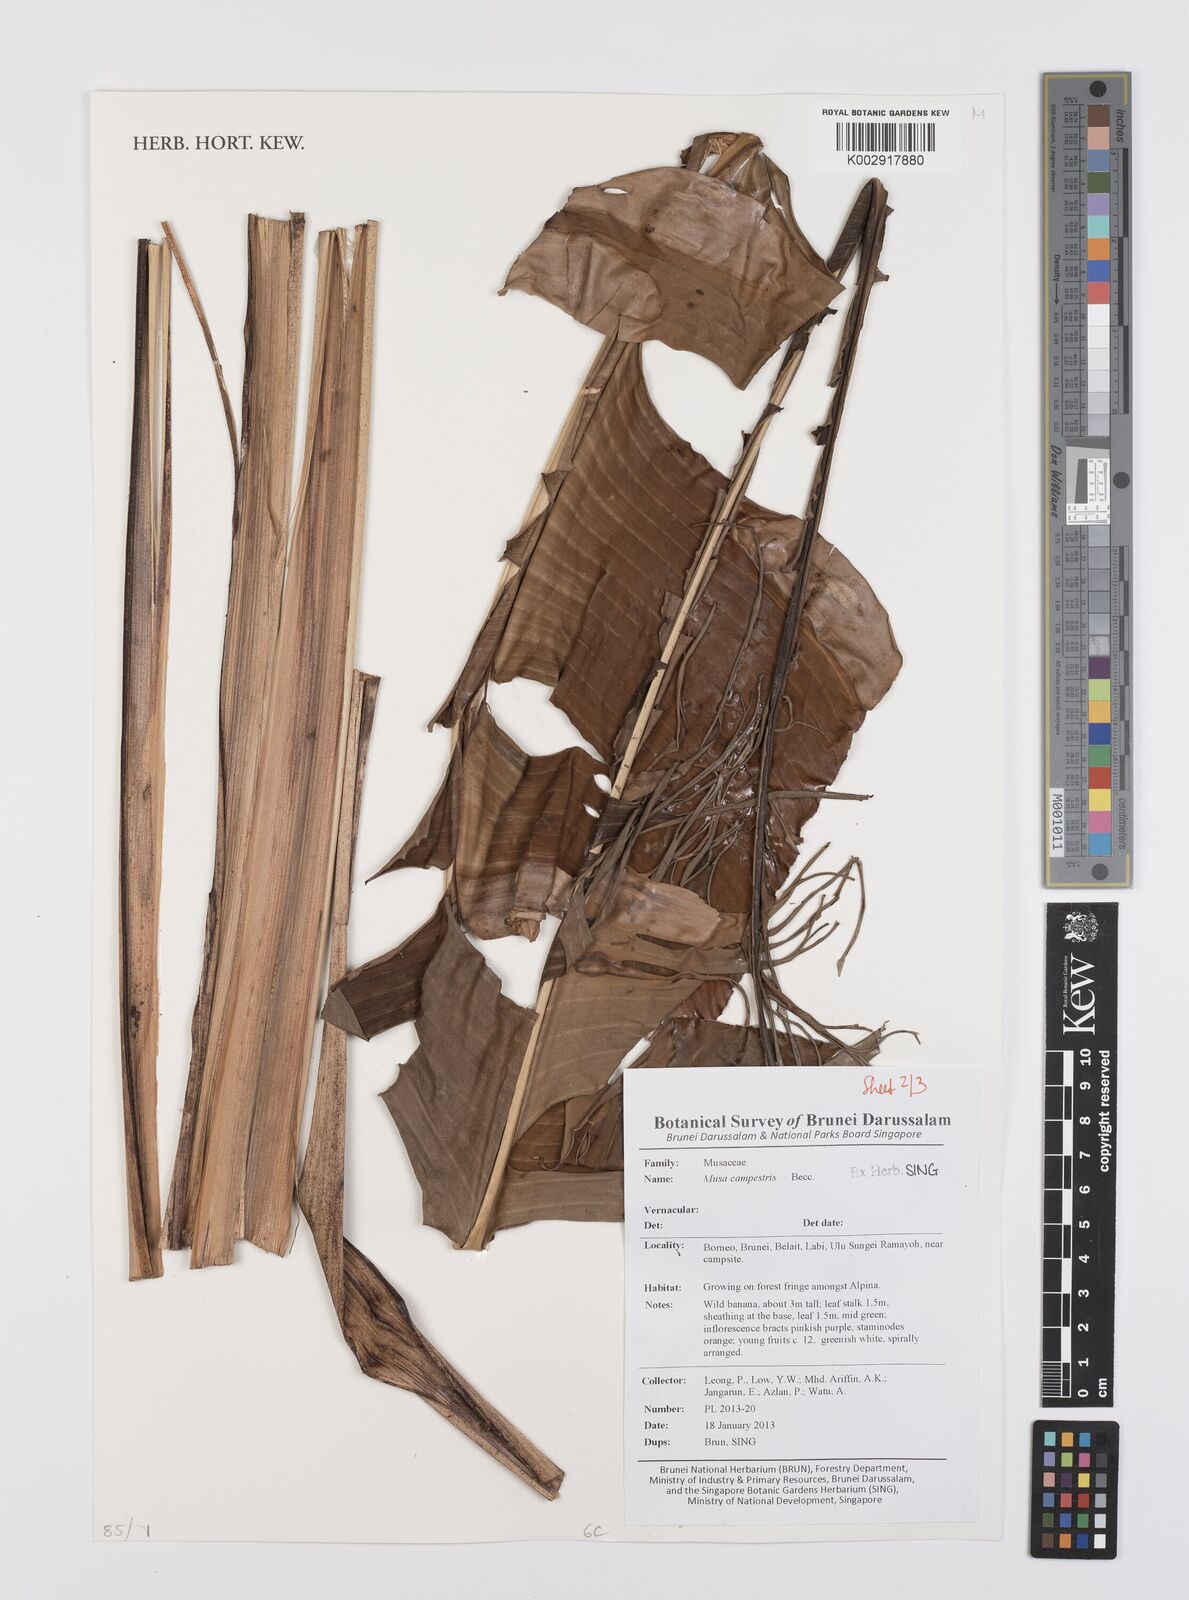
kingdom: Plantae
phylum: Tracheophyta
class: Liliopsida
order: Zingiberales
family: Musaceae
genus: Musa
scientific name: Musa campestris
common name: Swamp banana
